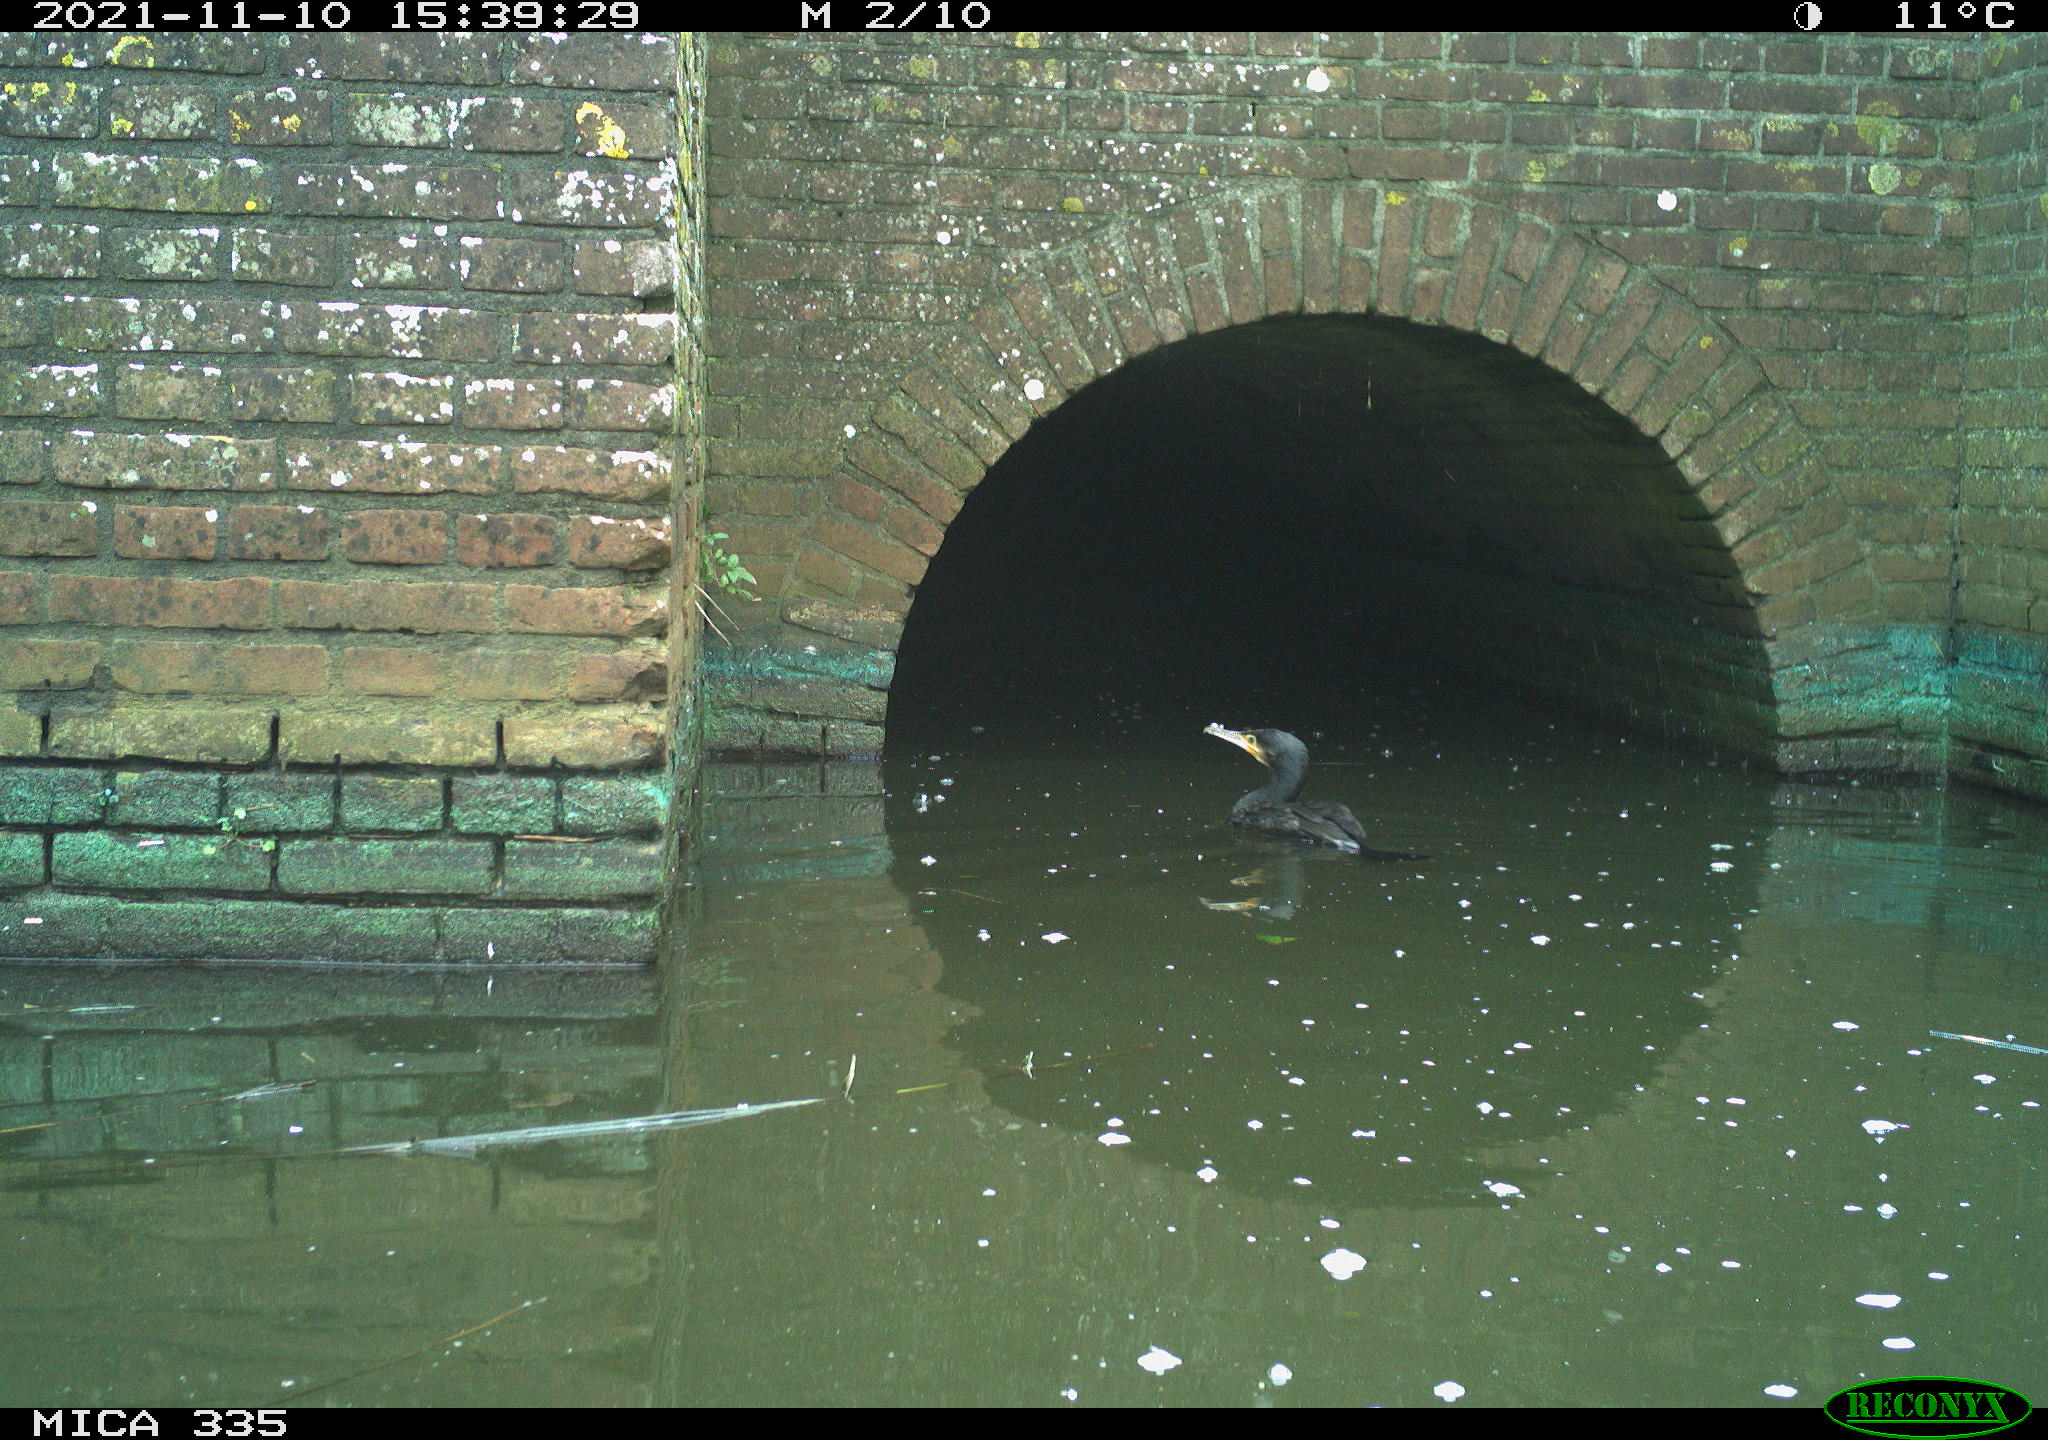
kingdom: Animalia
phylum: Chordata
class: Aves
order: Suliformes
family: Phalacrocoracidae
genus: Phalacrocorax
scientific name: Phalacrocorax carbo
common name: Great cormorant
